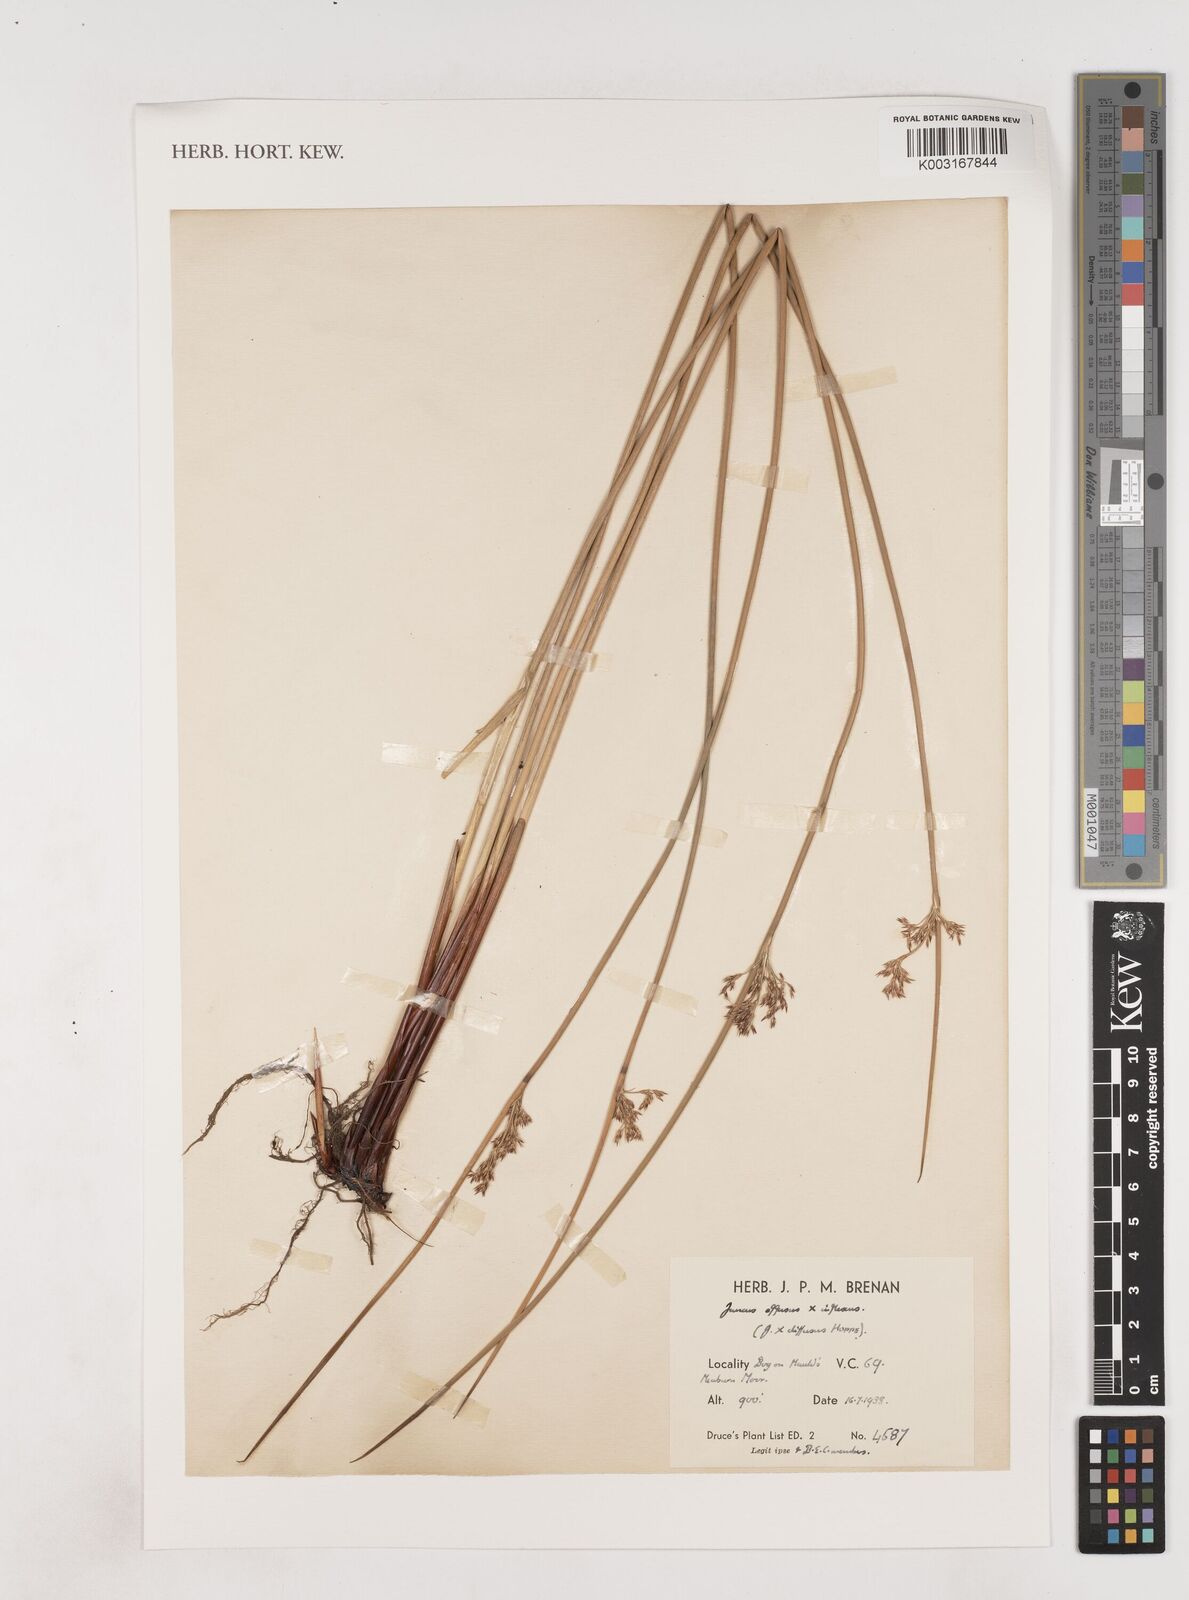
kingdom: Plantae
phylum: Tracheophyta
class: Liliopsida
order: Poales
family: Juncaceae
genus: Juncus
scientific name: Juncus effusus
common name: Soft rush
